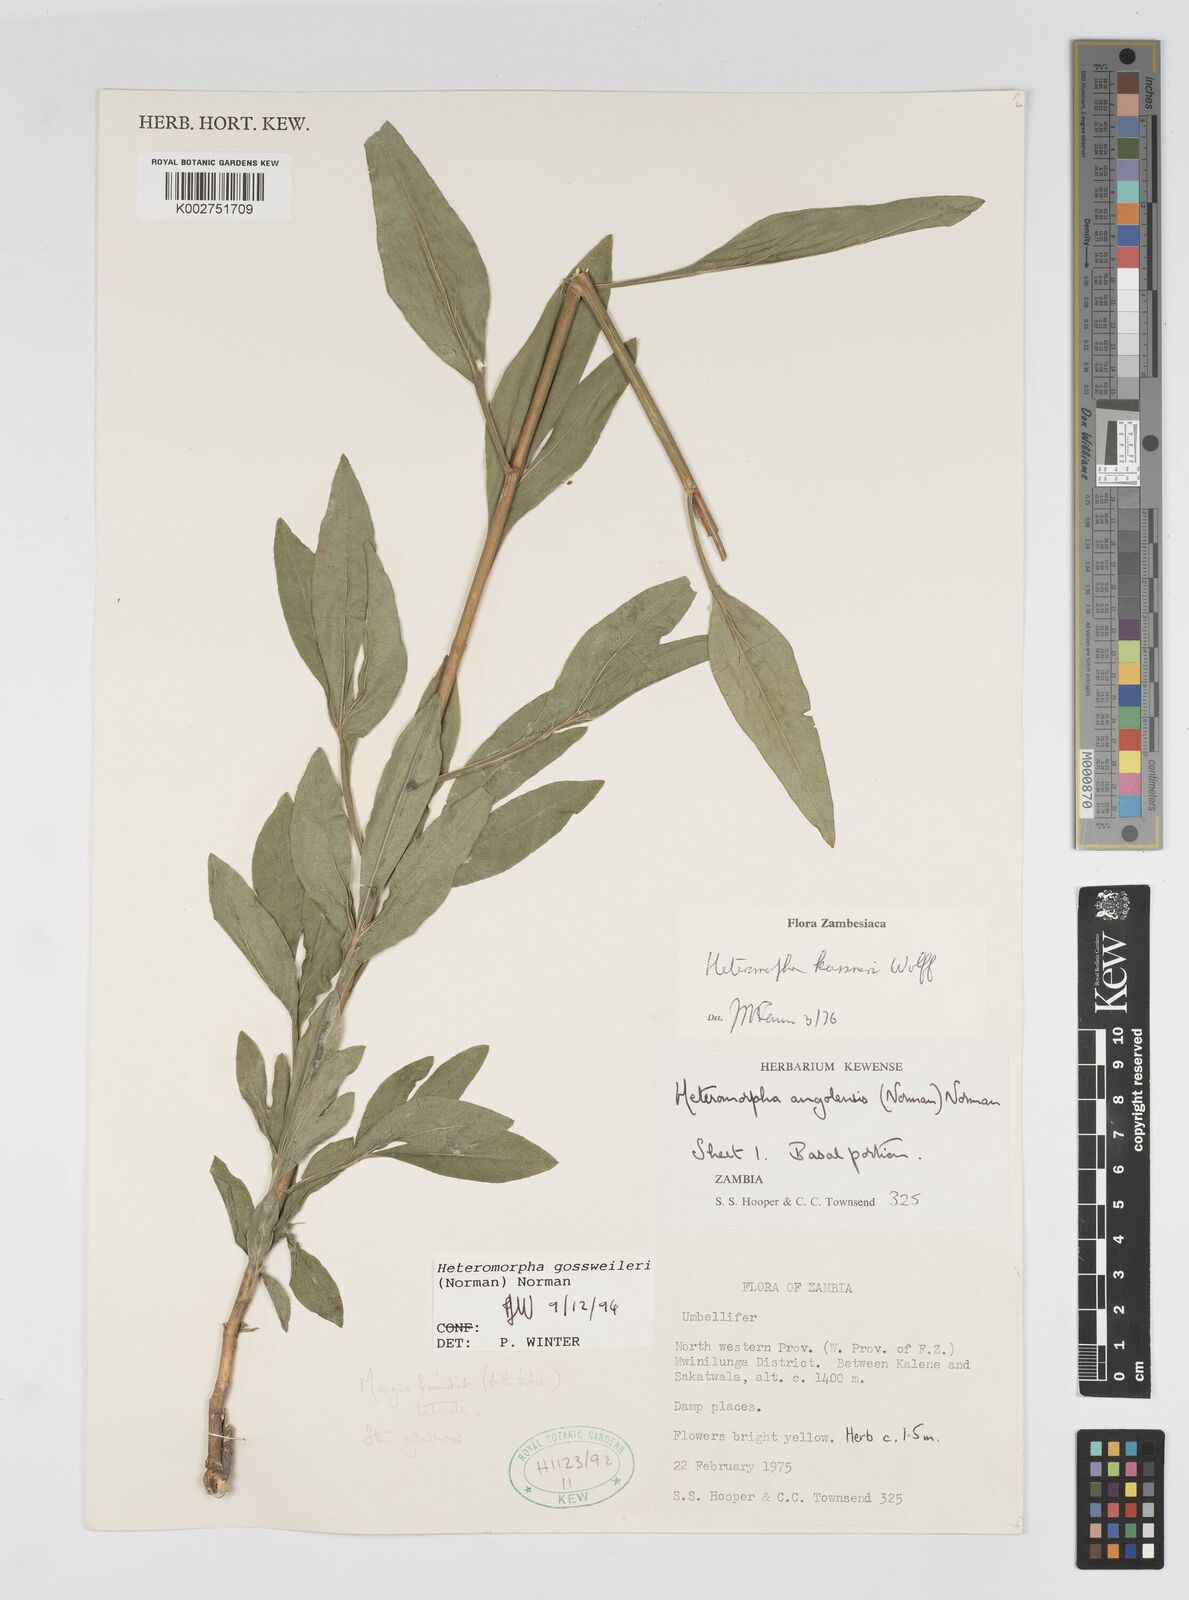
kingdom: Plantae
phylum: Tracheophyta
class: Magnoliopsida
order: Apiales
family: Apiaceae
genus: Heteromorpha
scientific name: Heteromorpha gossweileri
